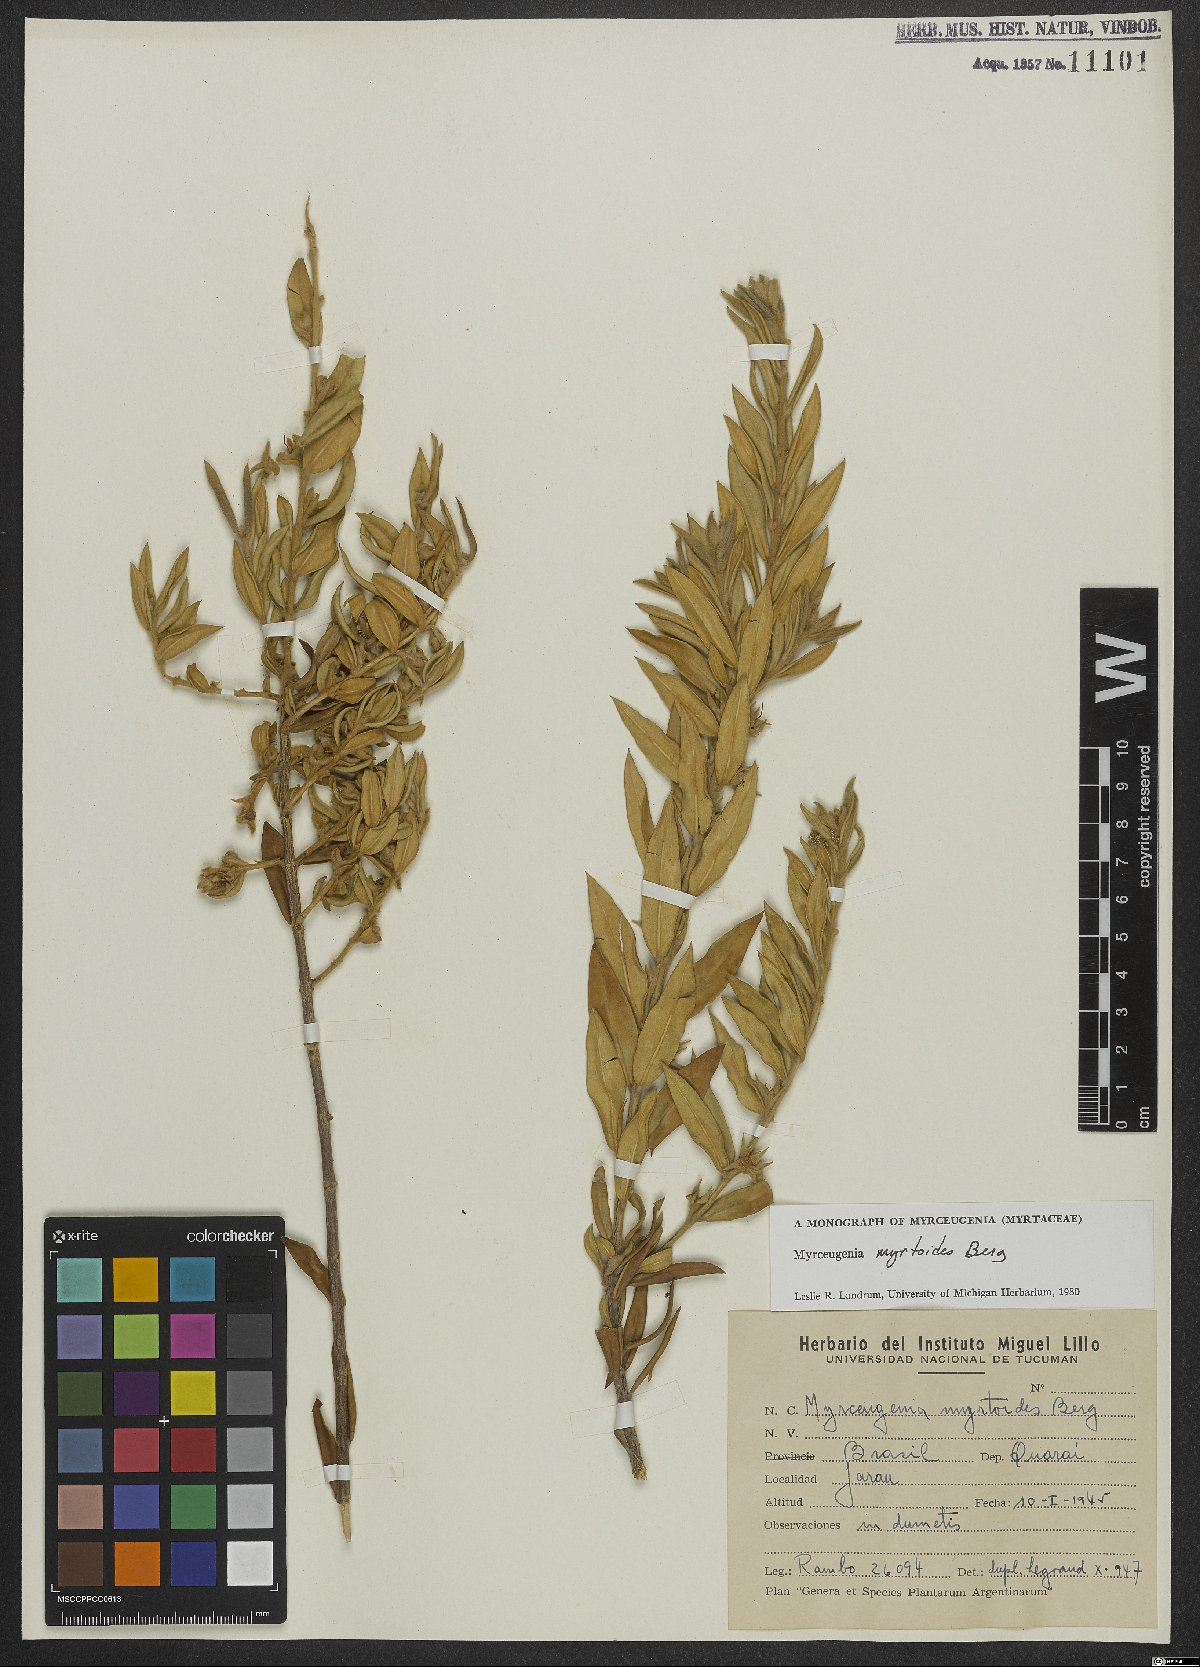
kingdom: Plantae
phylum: Tracheophyta
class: Magnoliopsida
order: Myrtales
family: Myrtaceae
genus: Myrceugenia
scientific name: Myrceugenia myrtoides
